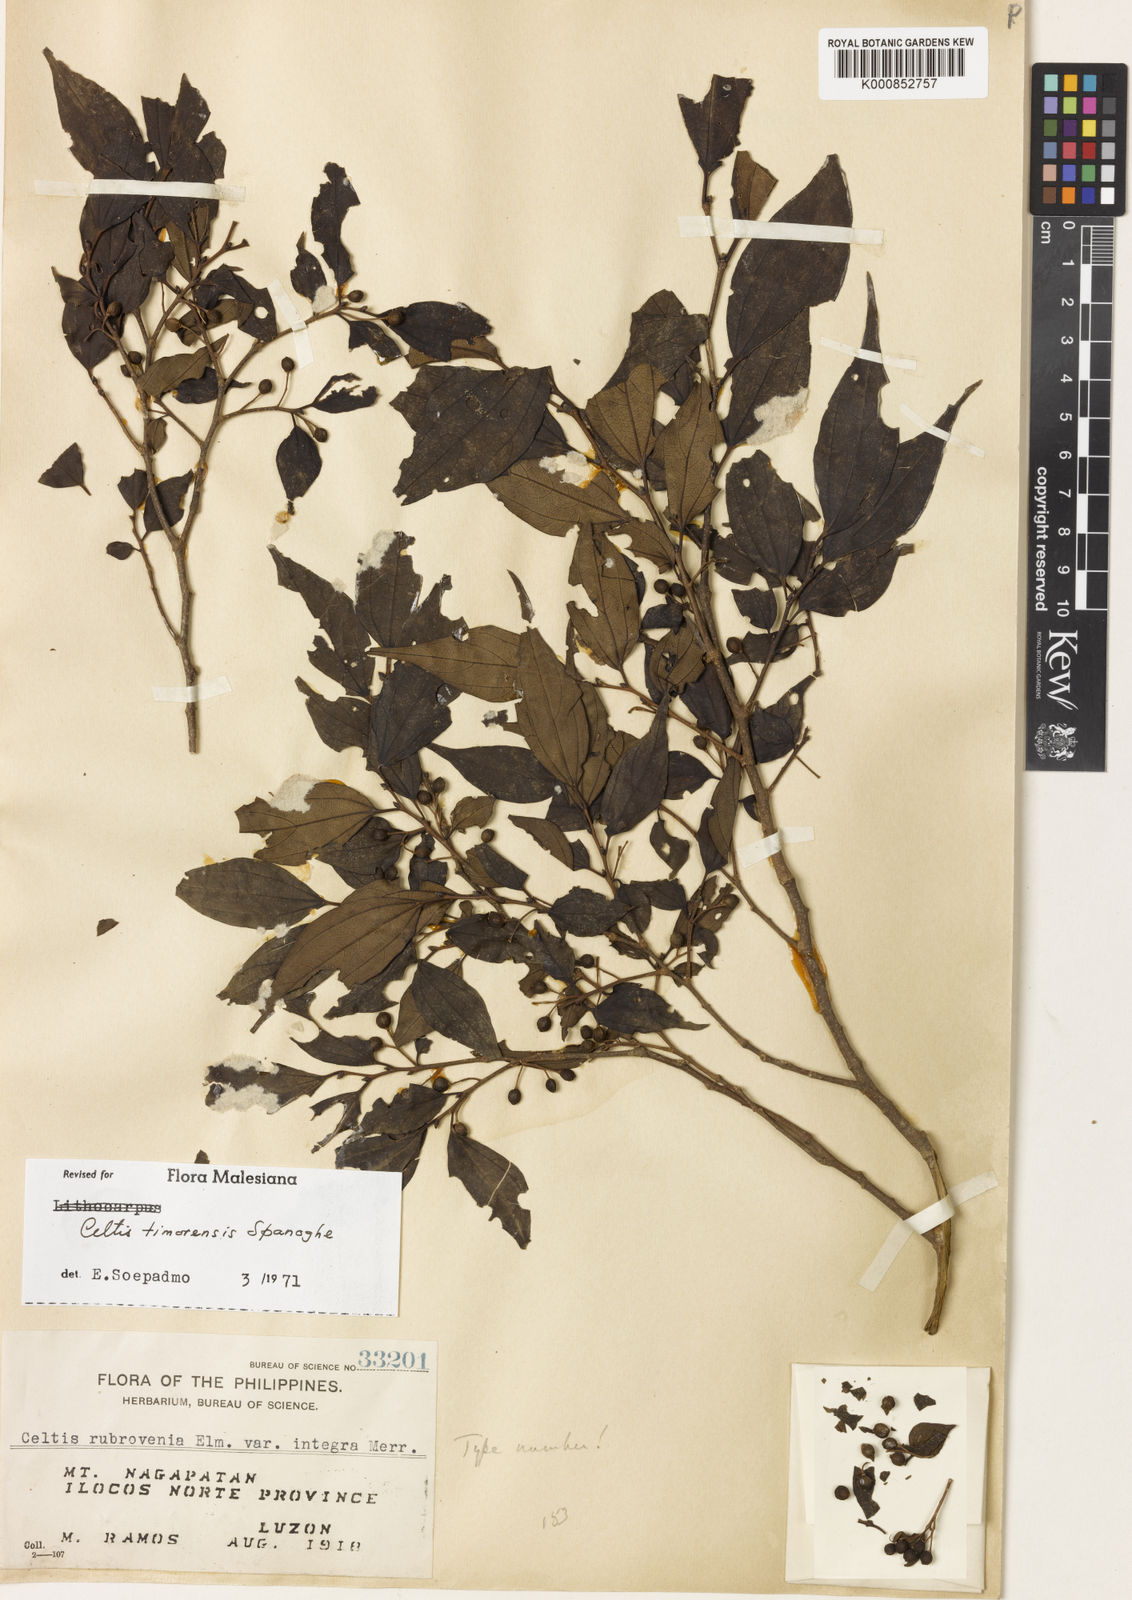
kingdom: Plantae
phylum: Tracheophyta
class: Magnoliopsida
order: Rosales
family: Cannabaceae
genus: Celtis
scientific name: Celtis rubrovenia
